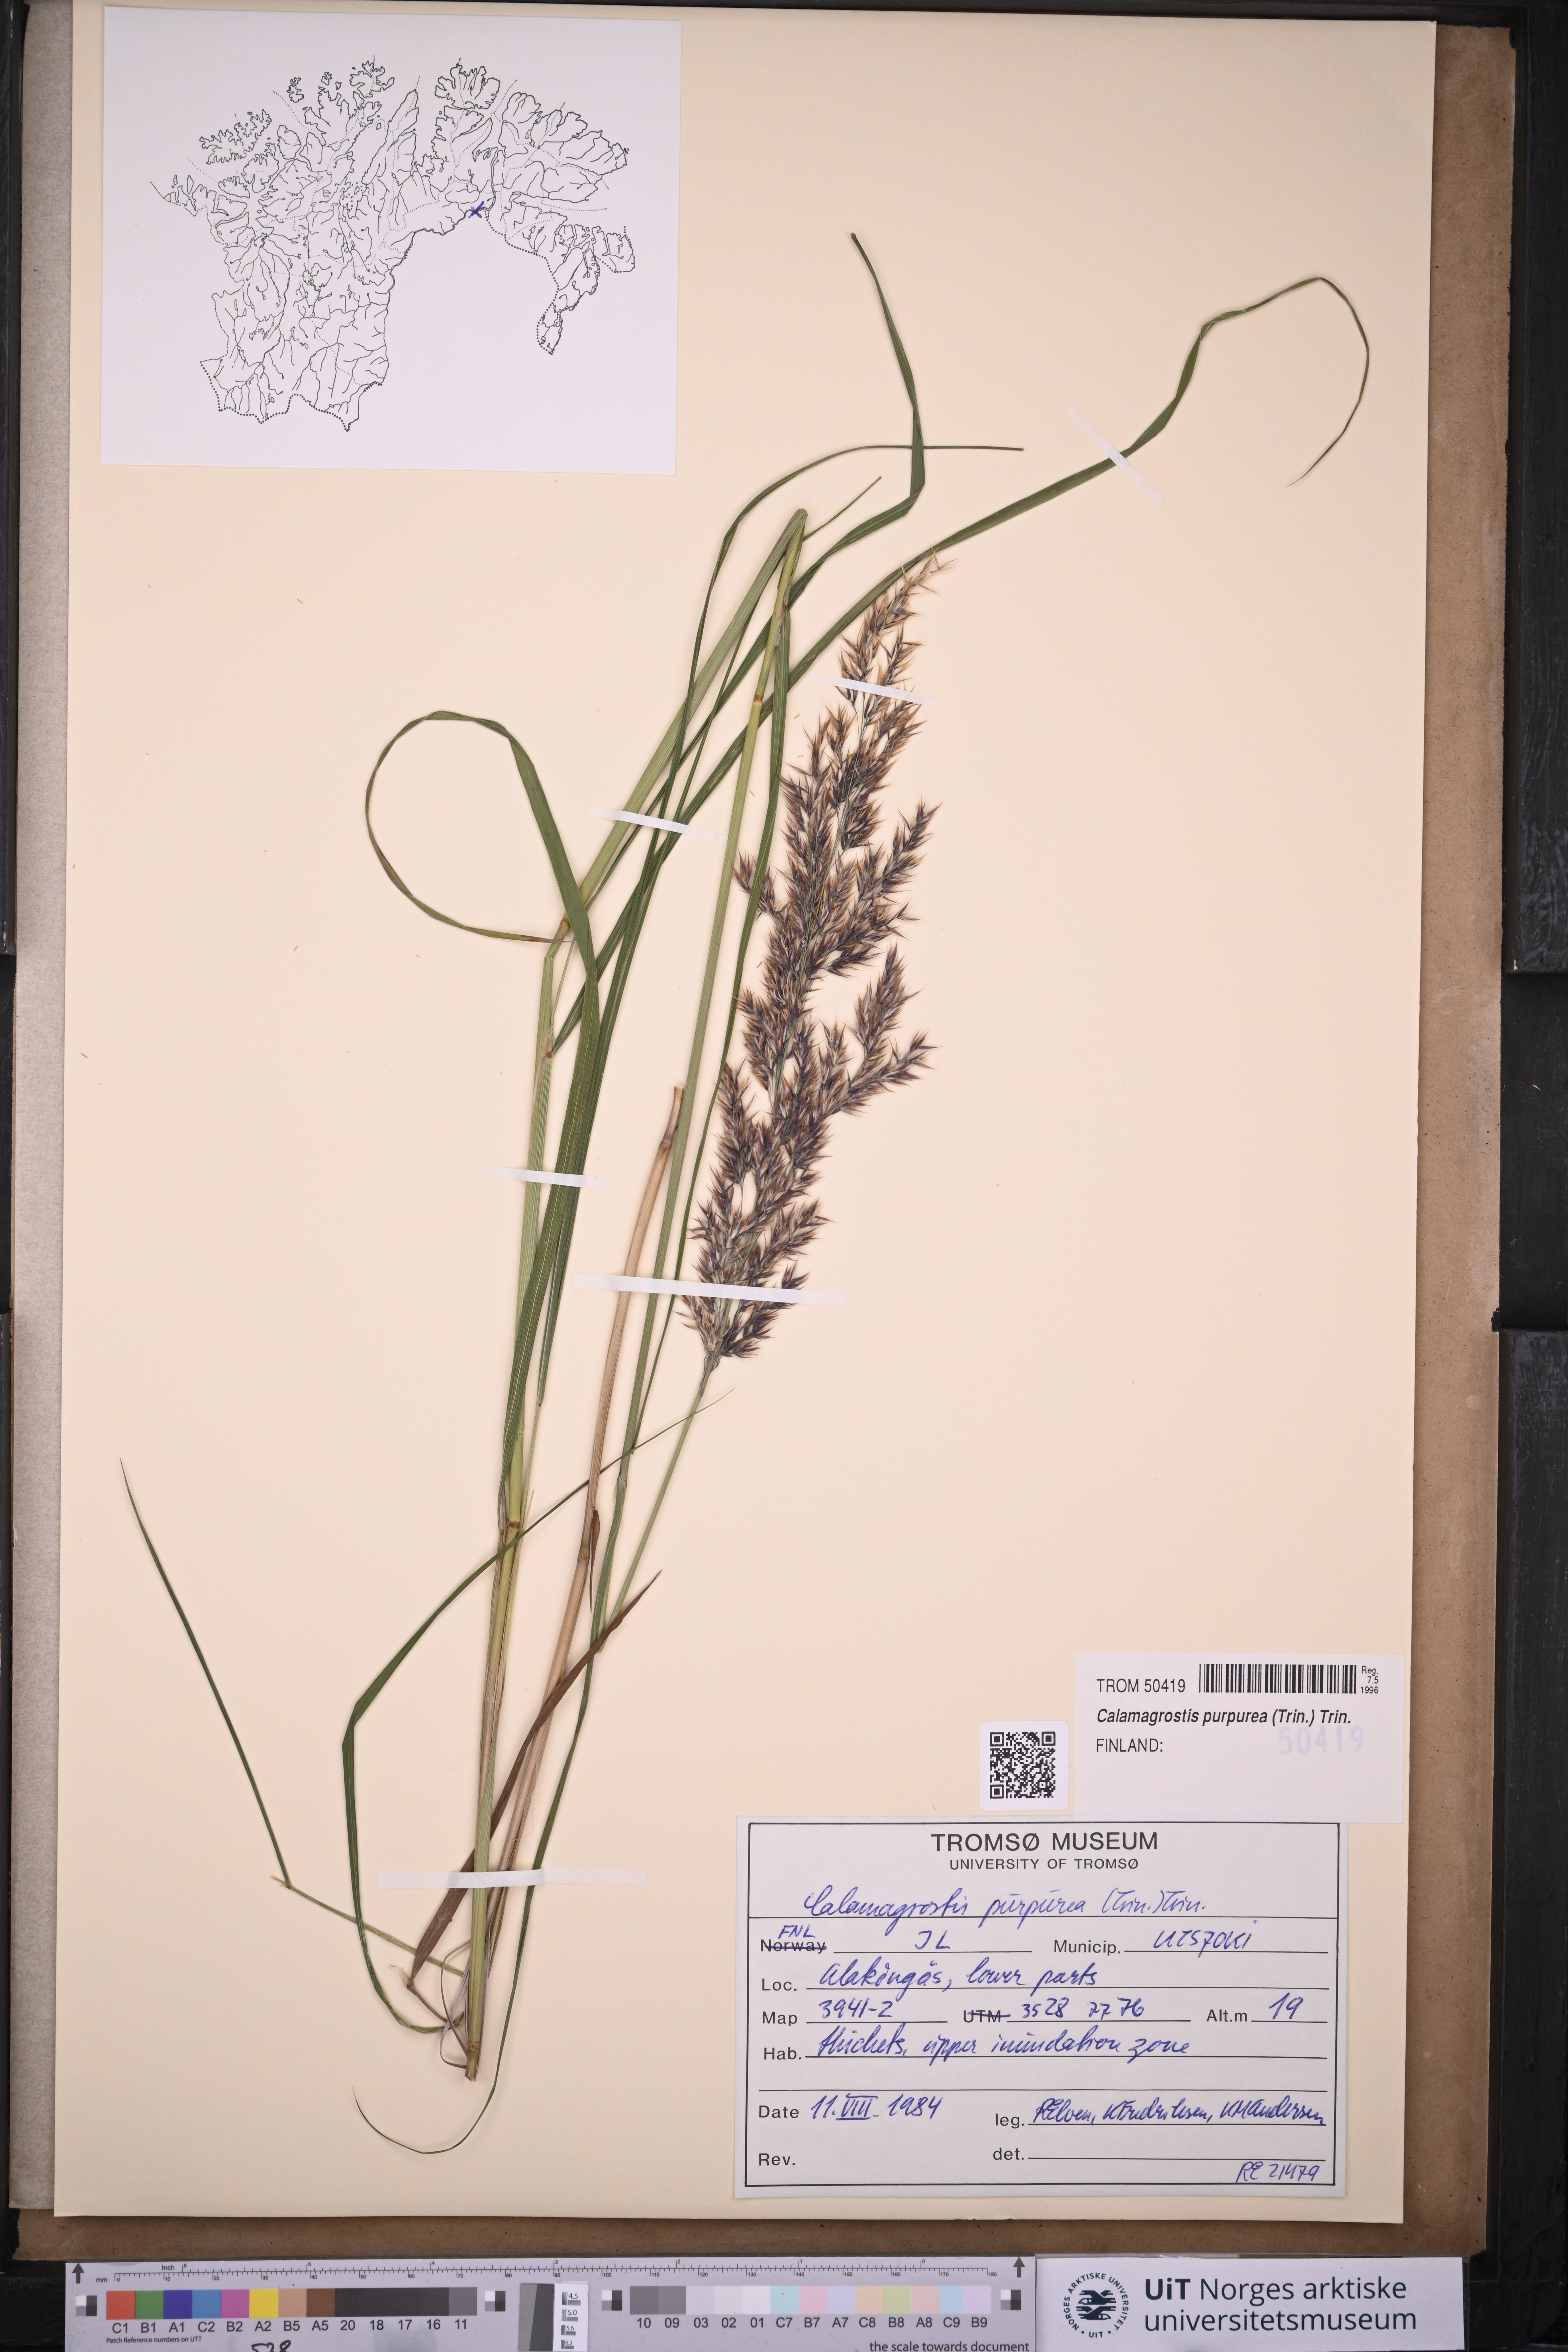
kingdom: Plantae
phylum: Tracheophyta
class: Liliopsida
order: Poales
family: Poaceae
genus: Calamagrostis
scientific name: Calamagrostis purpurea
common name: Scandinavian small-reed
